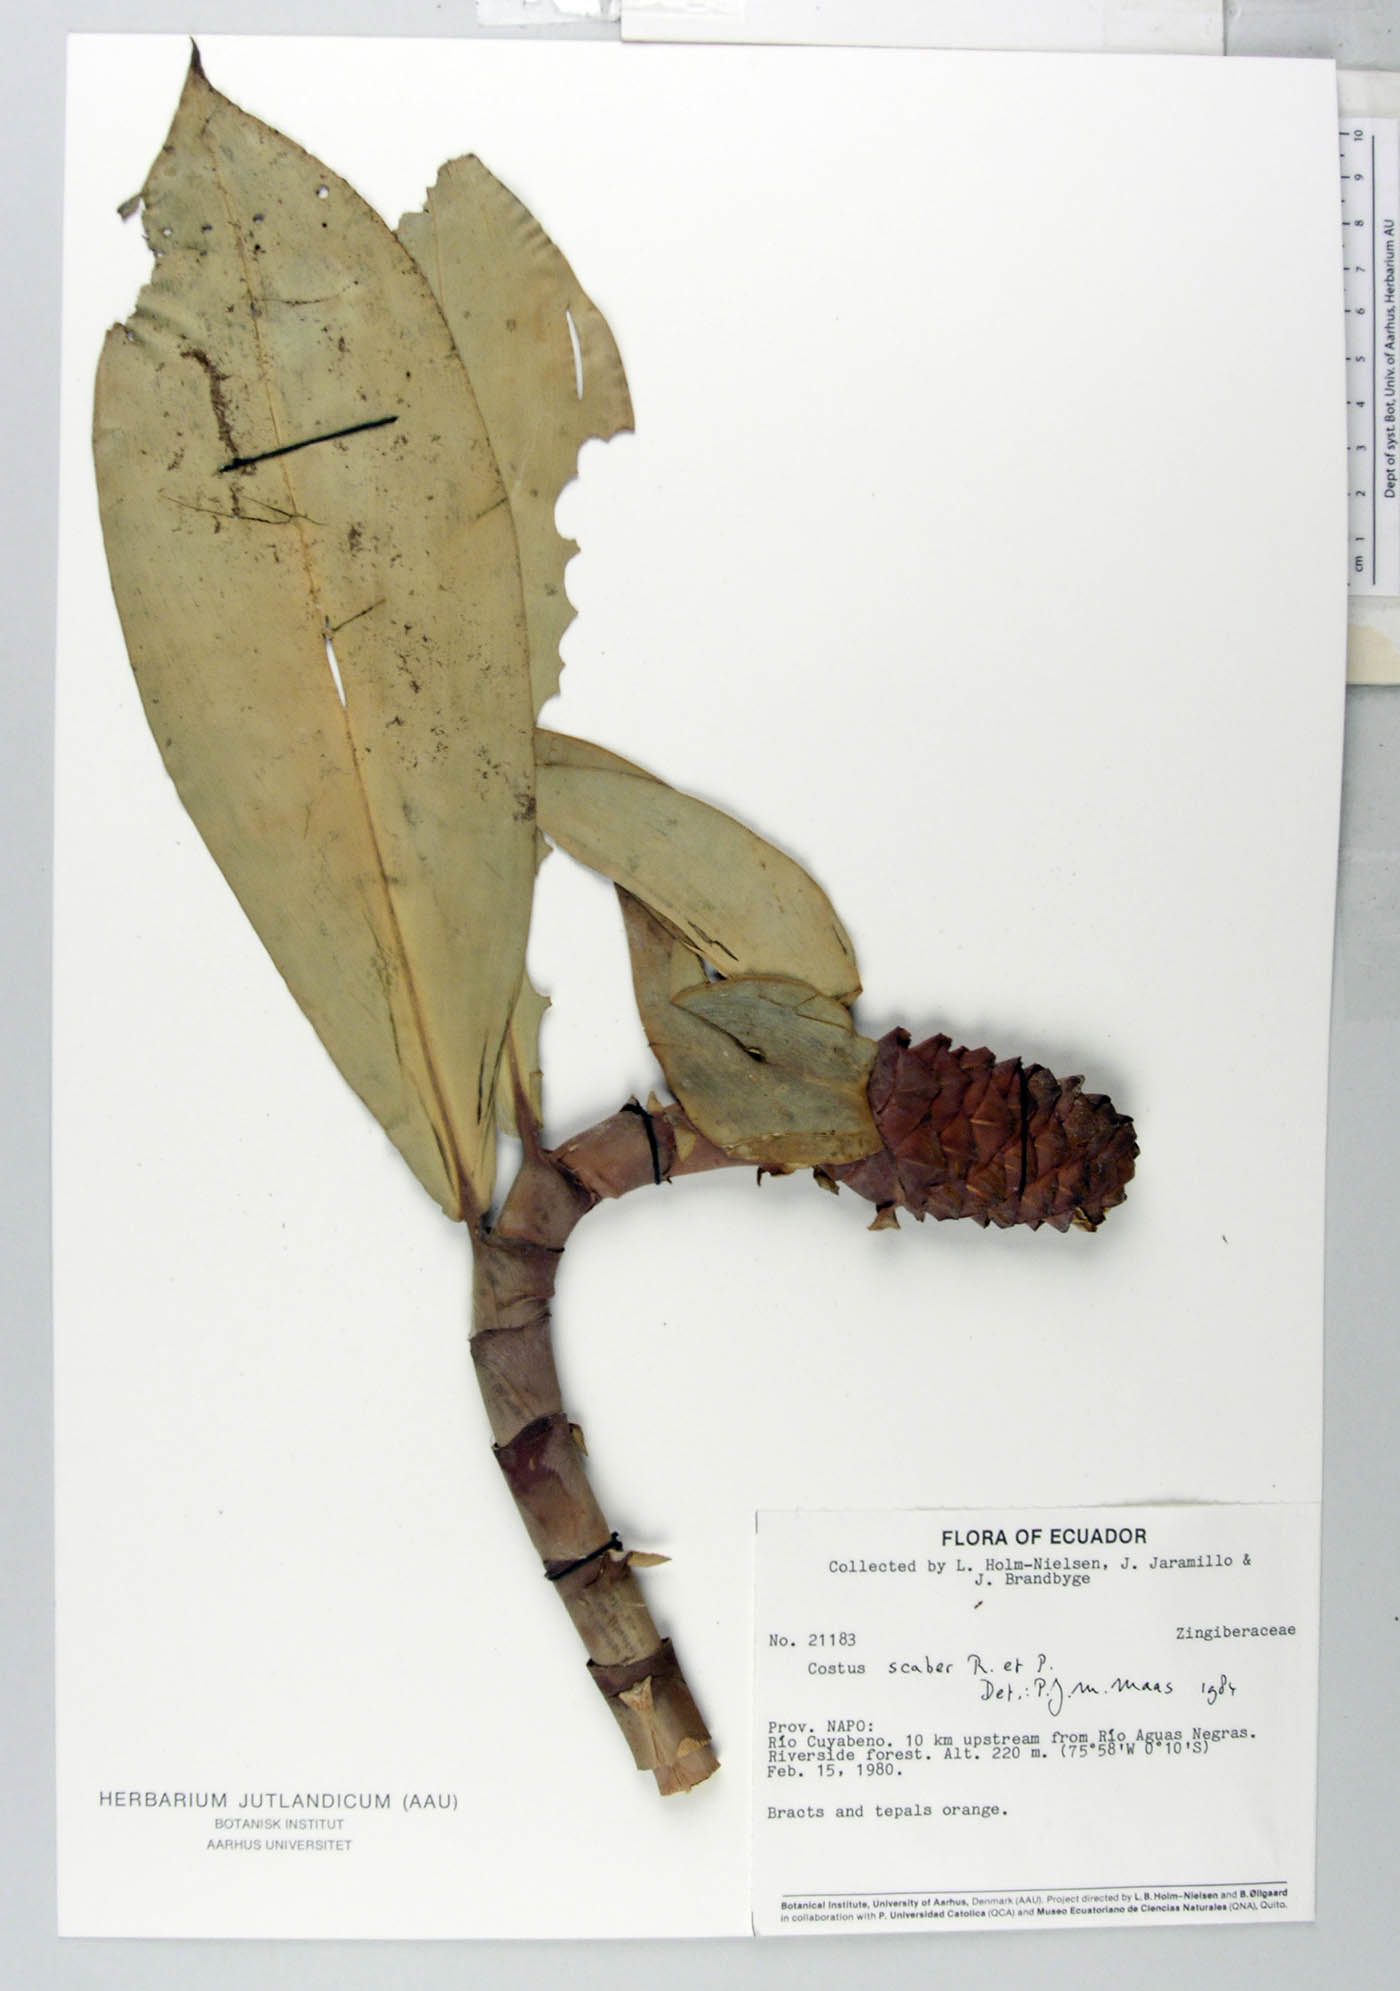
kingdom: Plantae
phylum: Tracheophyta
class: Liliopsida
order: Zingiberales
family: Costaceae
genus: Costus
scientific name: Costus scaber
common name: Spiral head ginger
